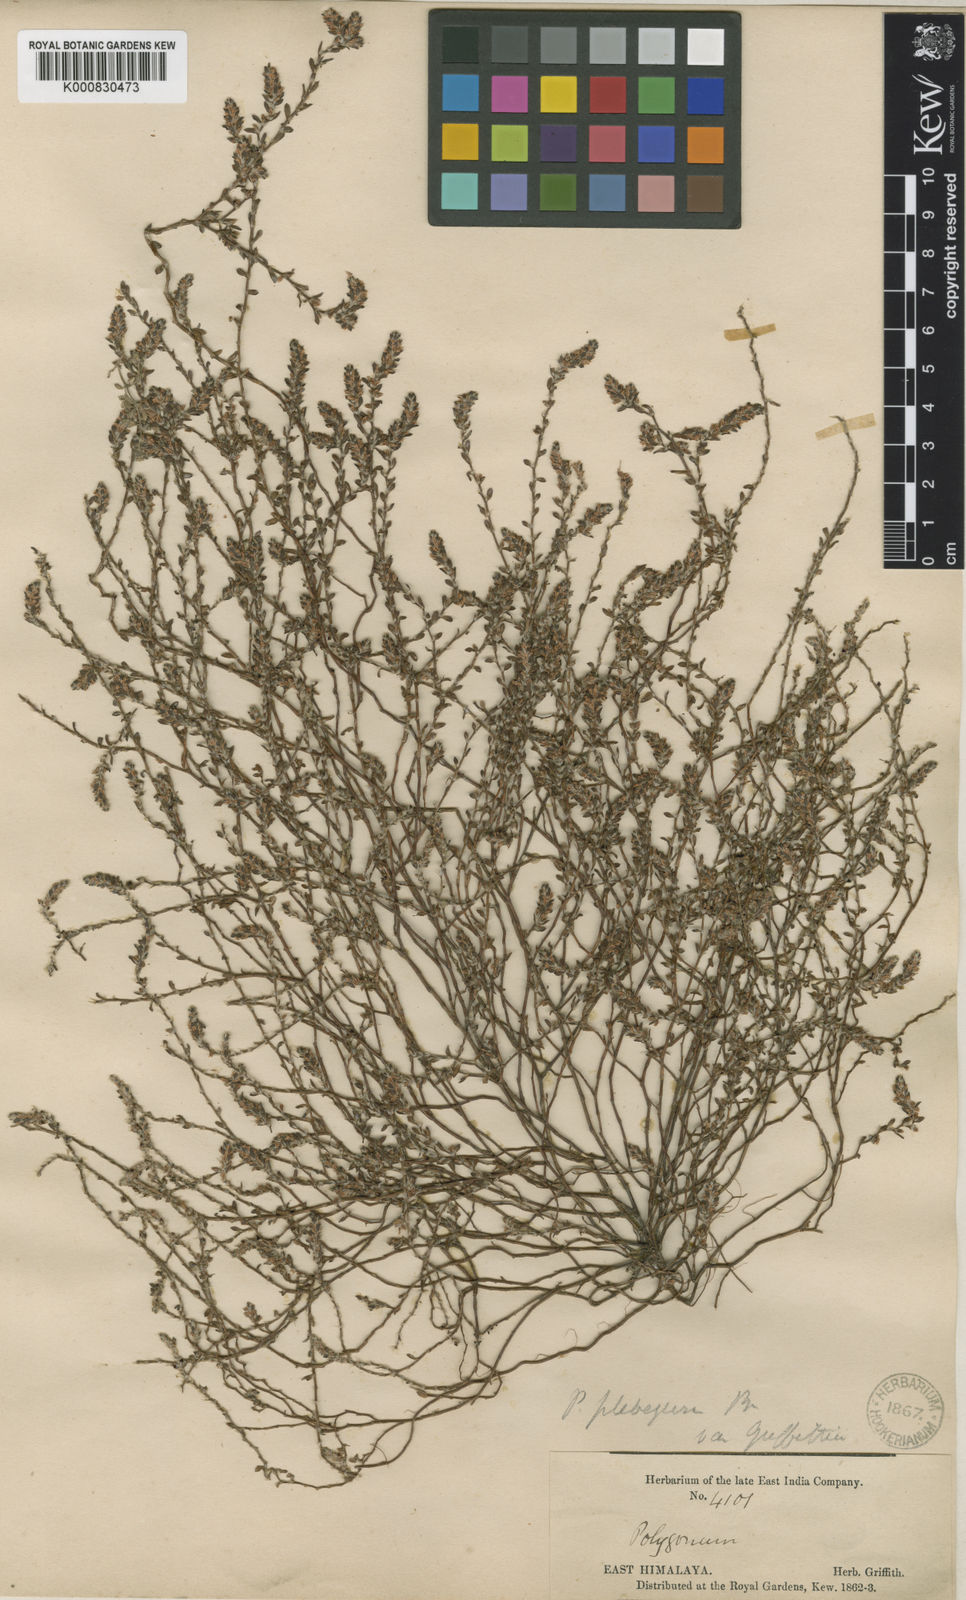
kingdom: Plantae
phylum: Tracheophyta
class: Magnoliopsida
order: Caryophyllales
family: Polygonaceae
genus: Polygonum
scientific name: Polygonum plebeium
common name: Common knotweed
